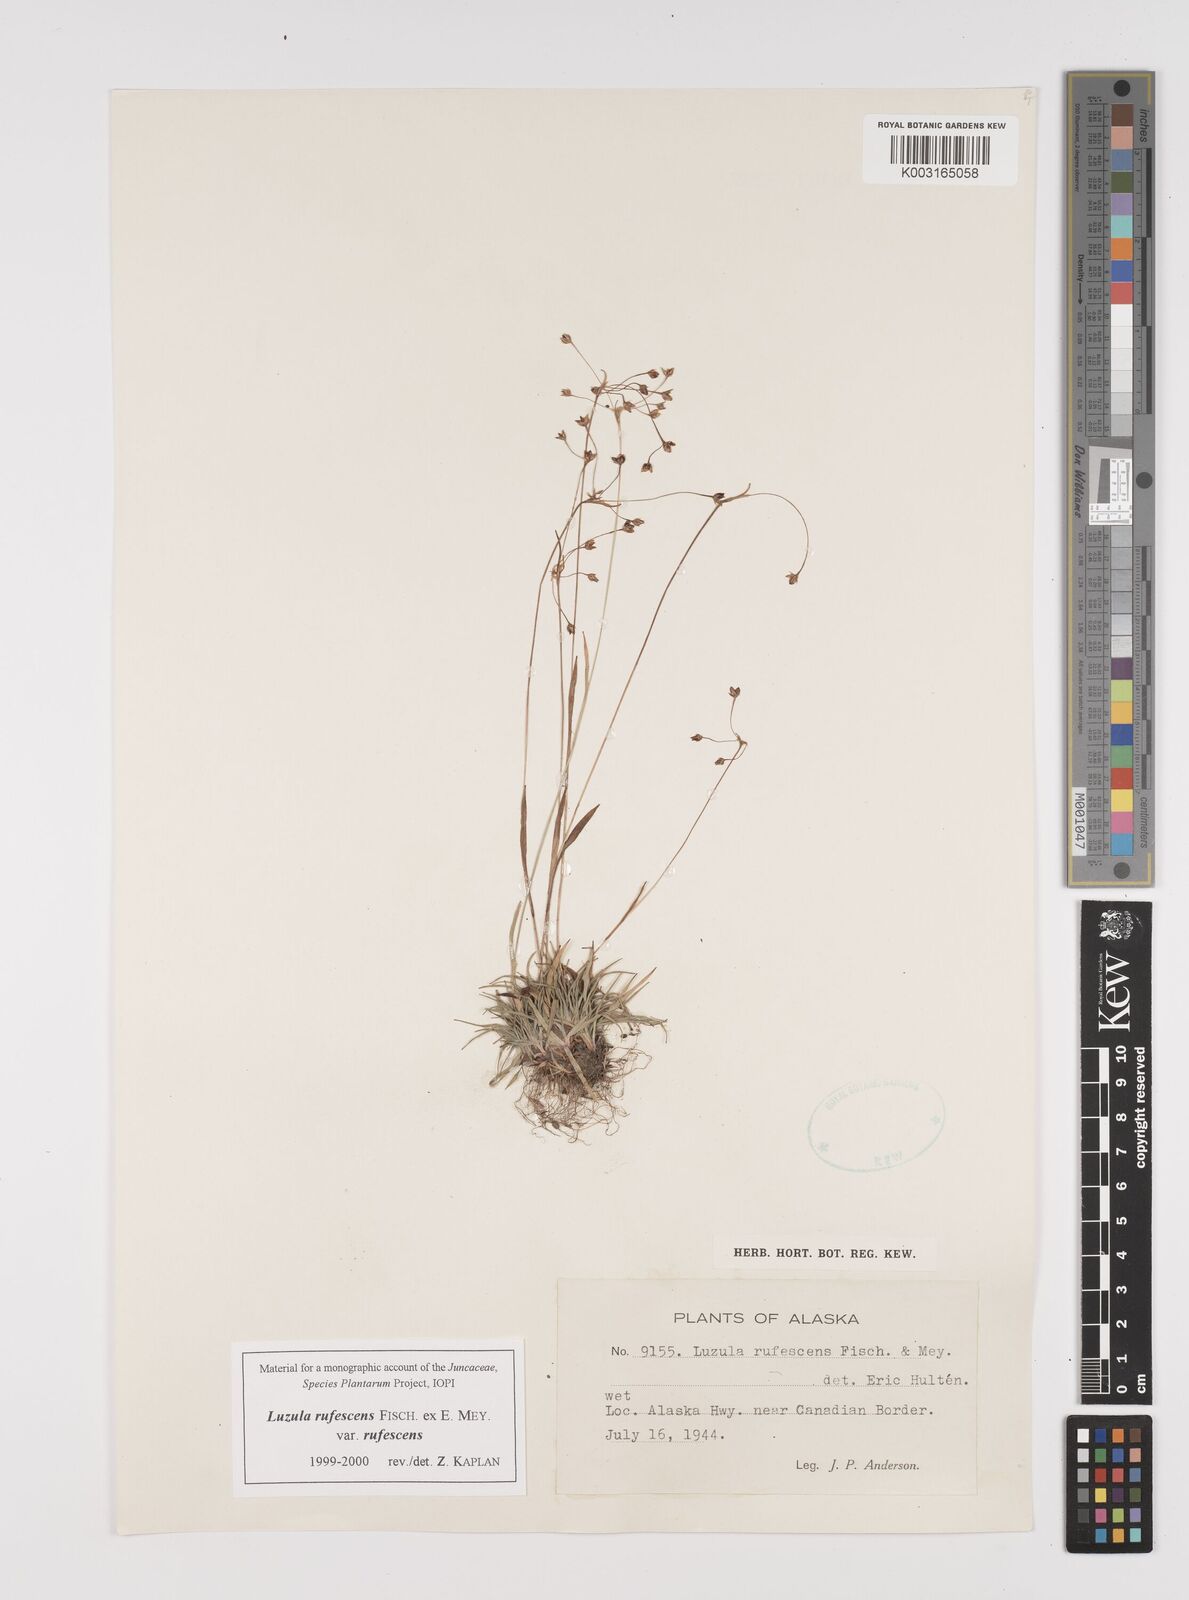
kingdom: Plantae
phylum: Tracheophyta
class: Liliopsida
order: Poales
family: Juncaceae
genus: Luzula
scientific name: Luzula rufescens
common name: Reddish woodrush
